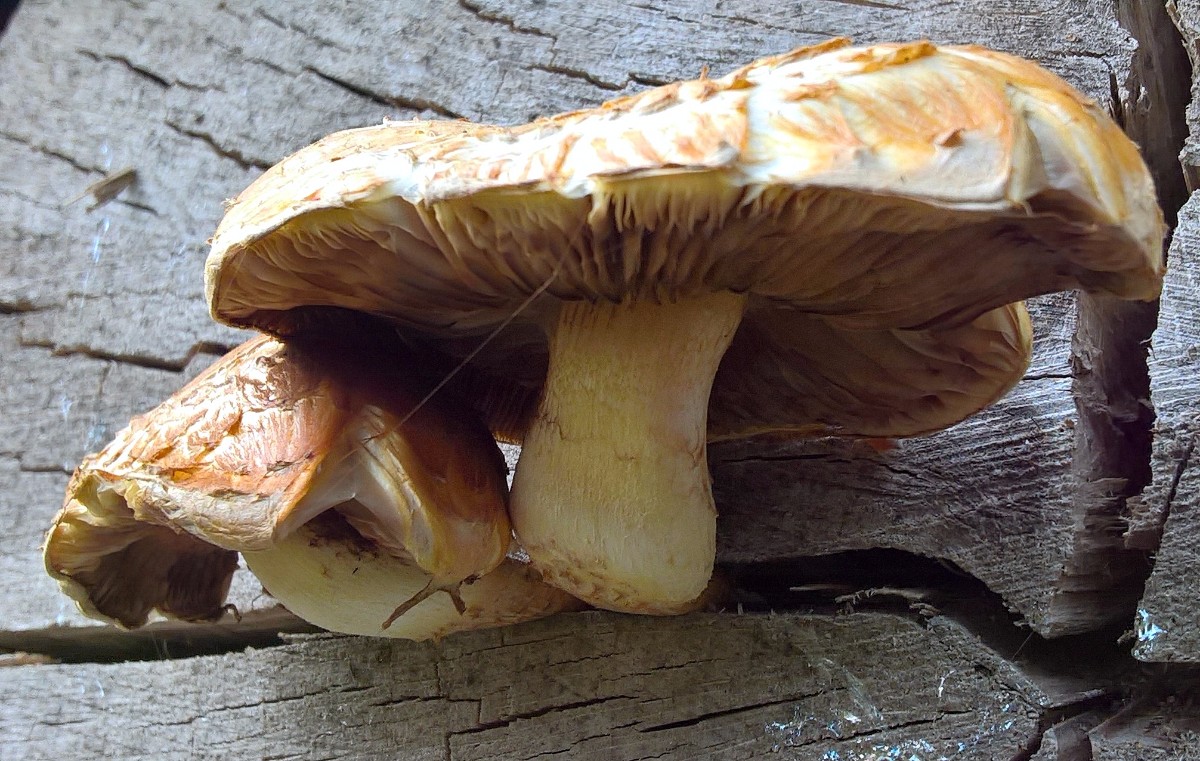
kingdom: Fungi
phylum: Basidiomycota
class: Agaricomycetes
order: Agaricales
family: Strophariaceae
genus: Pholiota
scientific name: Pholiota adiposa
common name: højtsiddende skælhat
